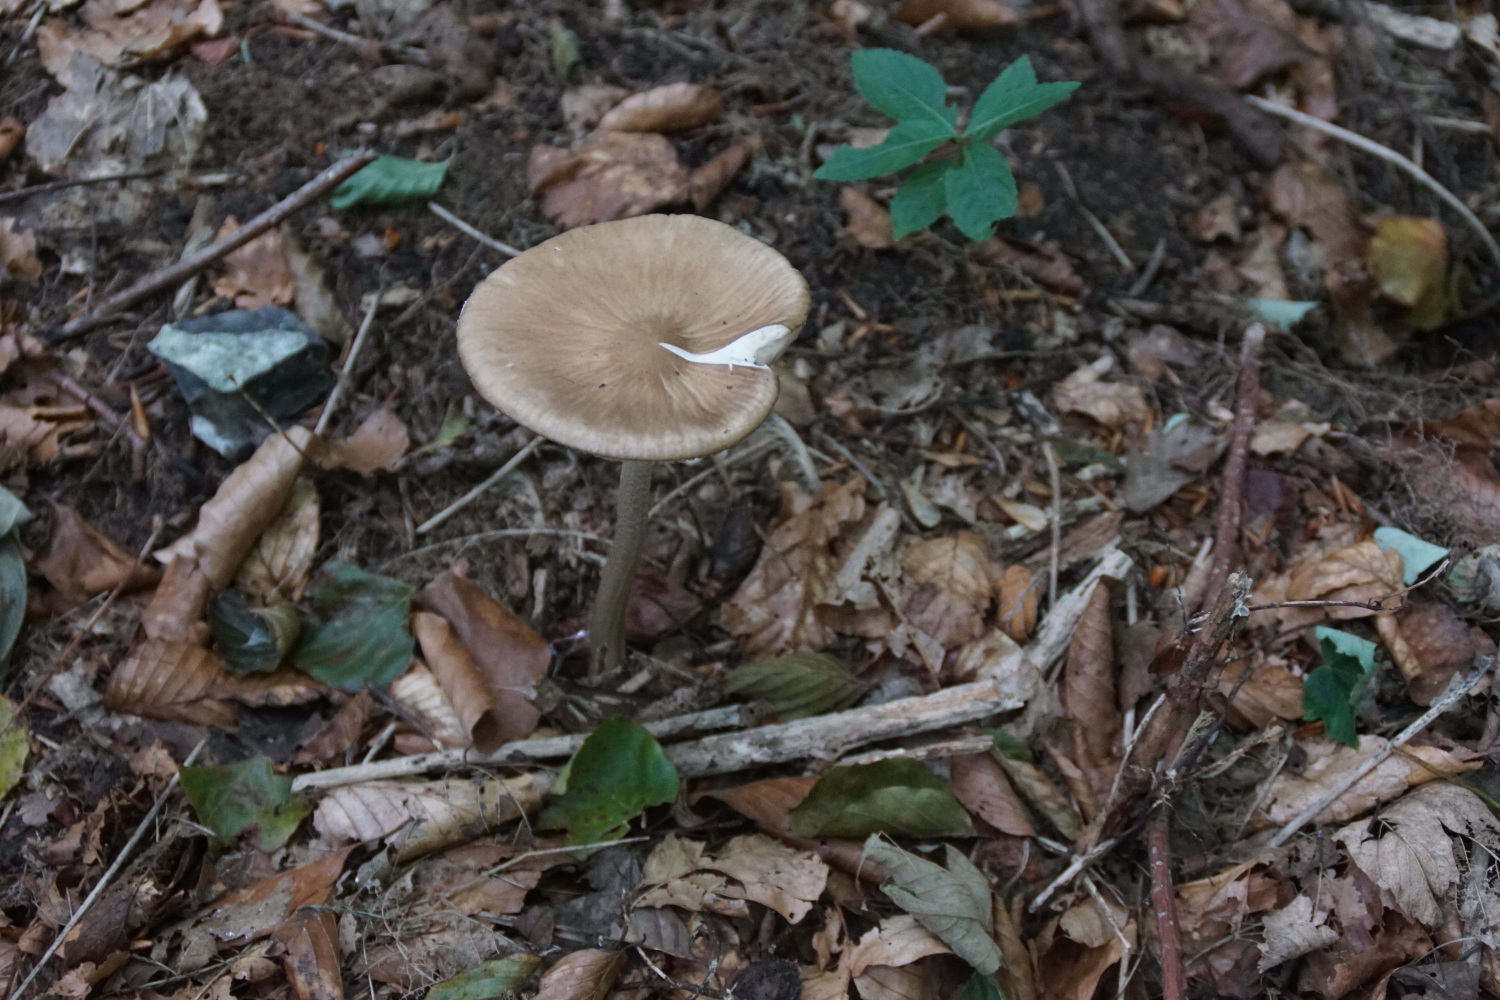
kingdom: Fungi
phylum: Basidiomycota
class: Agaricomycetes
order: Agaricales
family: Physalacriaceae
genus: Hymenopellis
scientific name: Hymenopellis radicata
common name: almindelig pælerodshat
